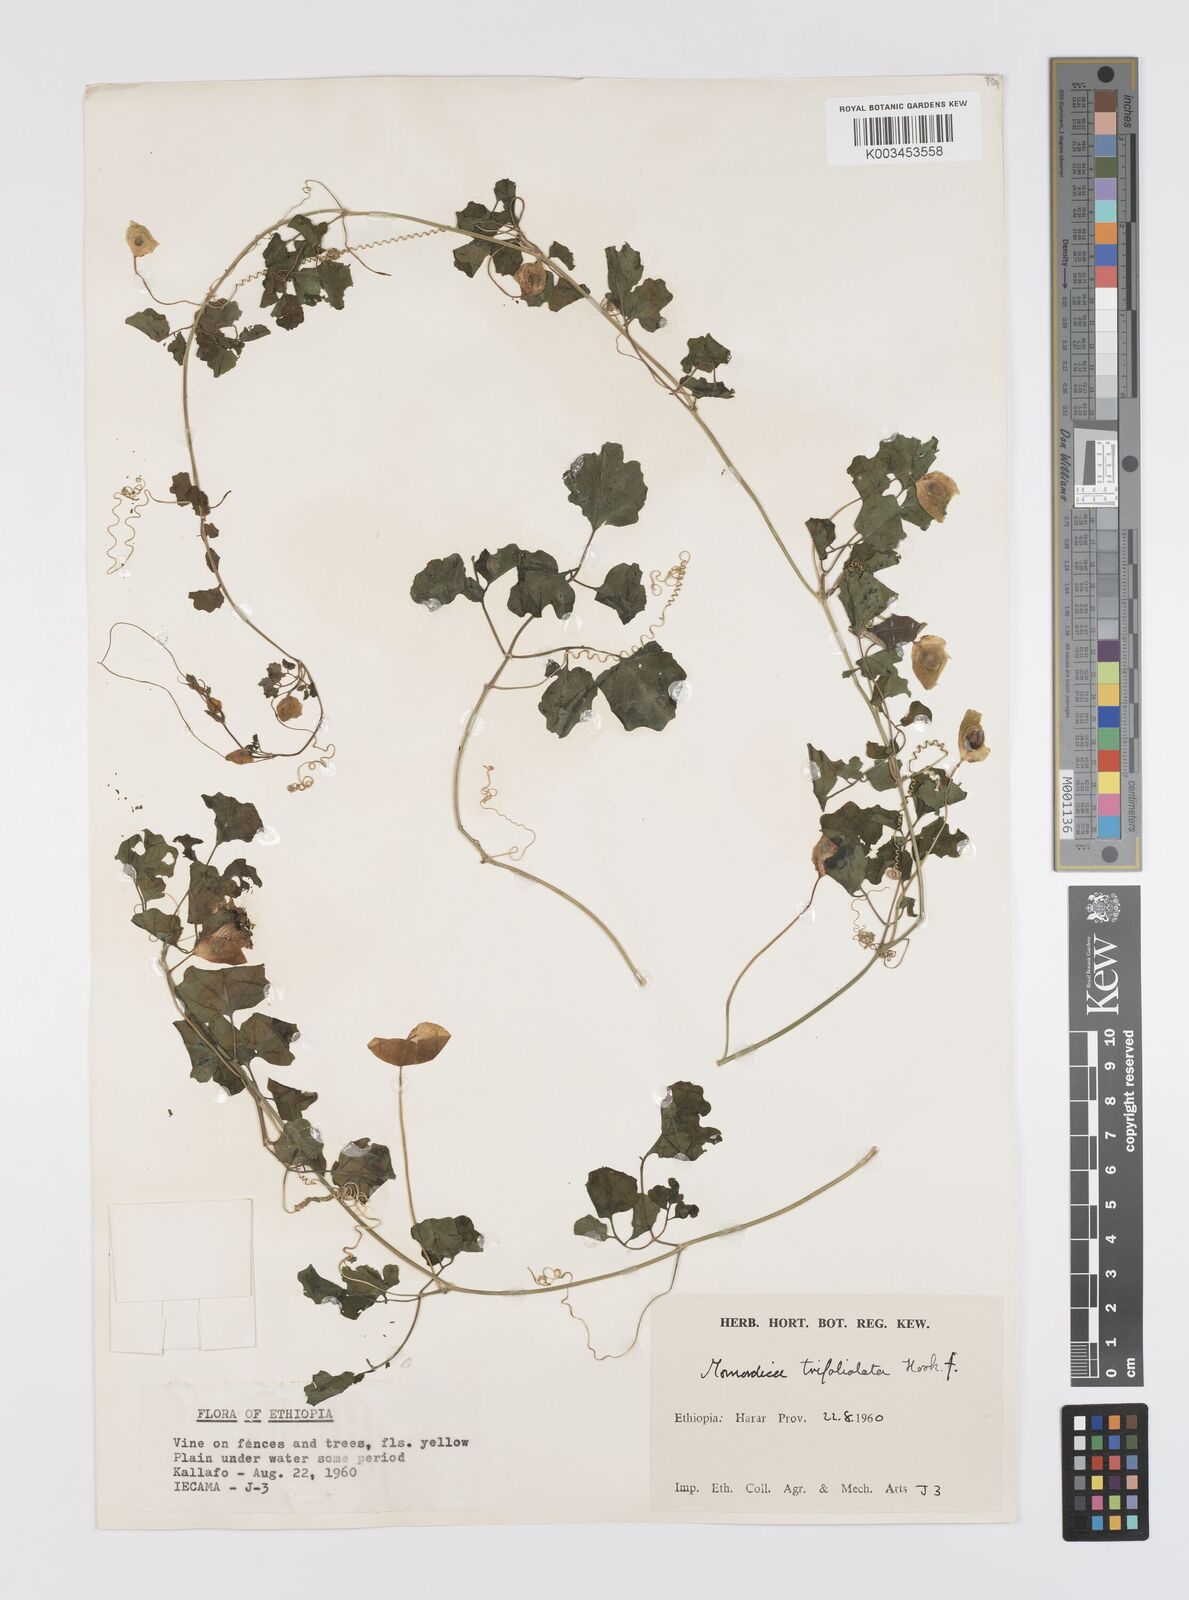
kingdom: Plantae
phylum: Tracheophyta
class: Magnoliopsida
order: Cucurbitales
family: Cucurbitaceae
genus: Momordica
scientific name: Momordica trifoliolata
